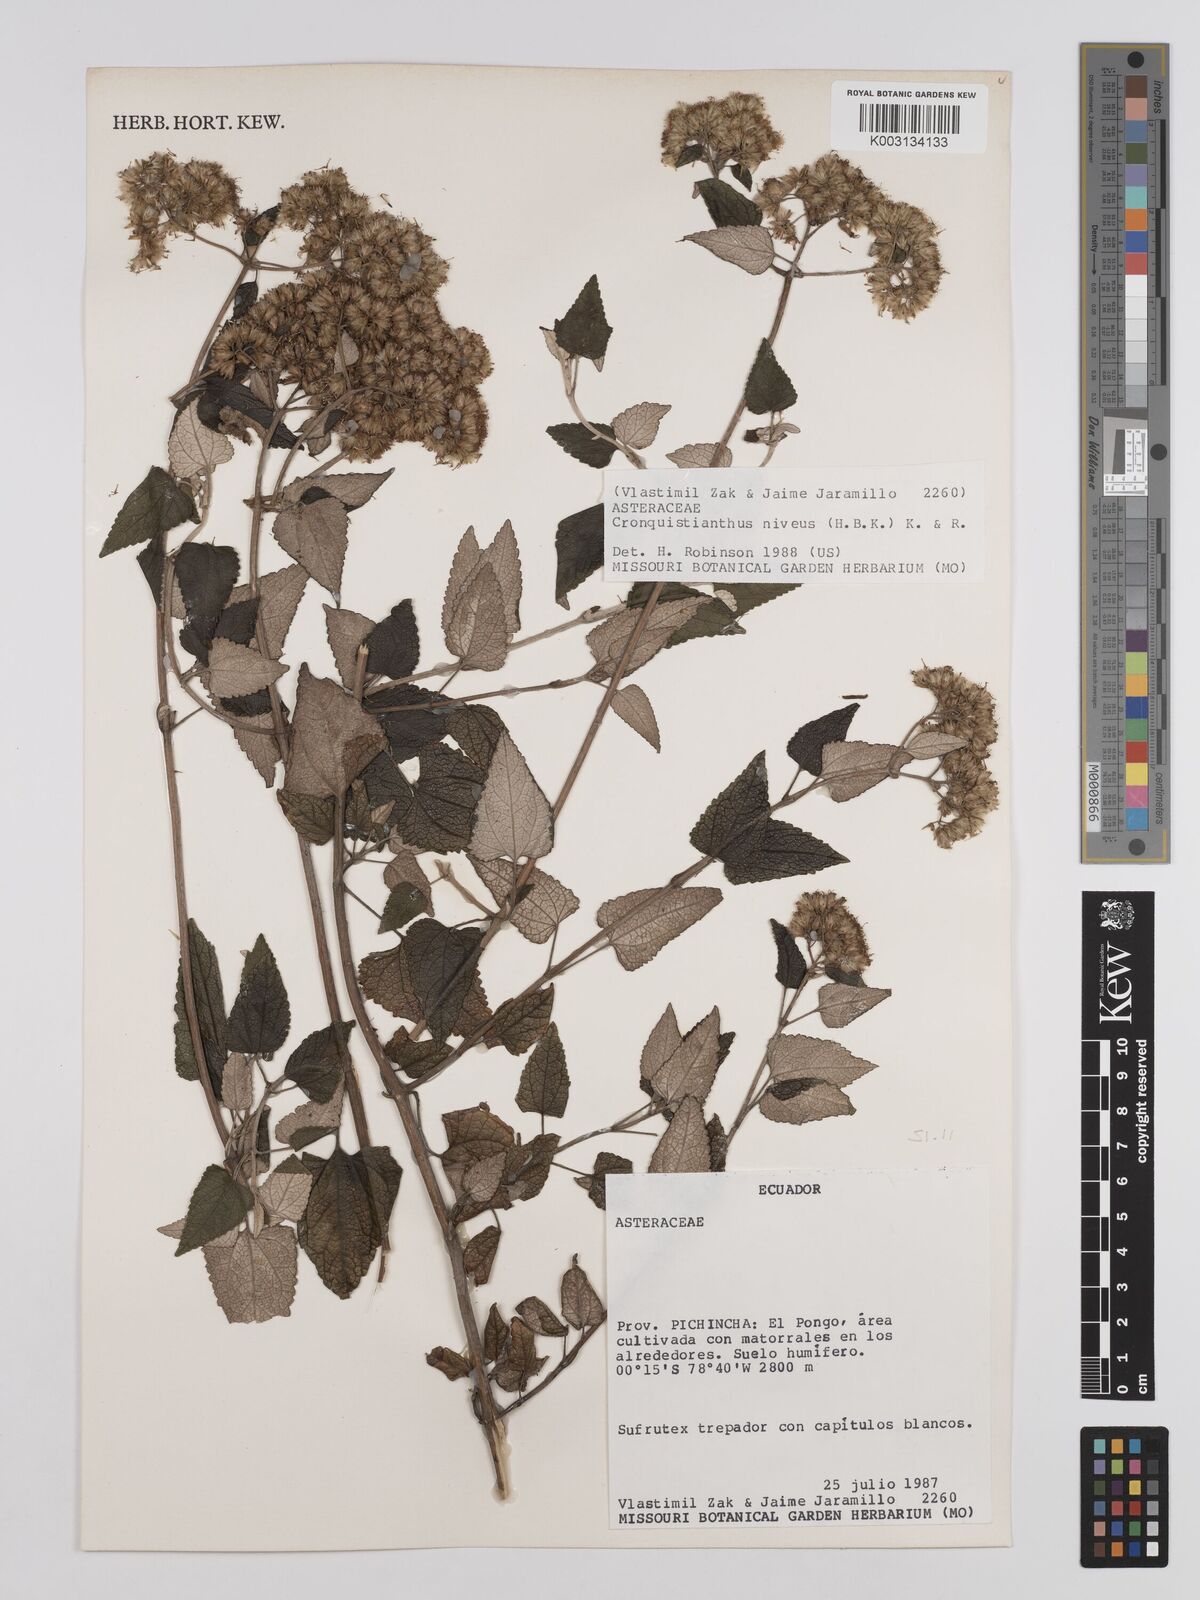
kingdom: Plantae
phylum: Tracheophyta
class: Magnoliopsida
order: Asterales
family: Asteraceae
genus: Cronquistianthus
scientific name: Cronquistianthus niveus
